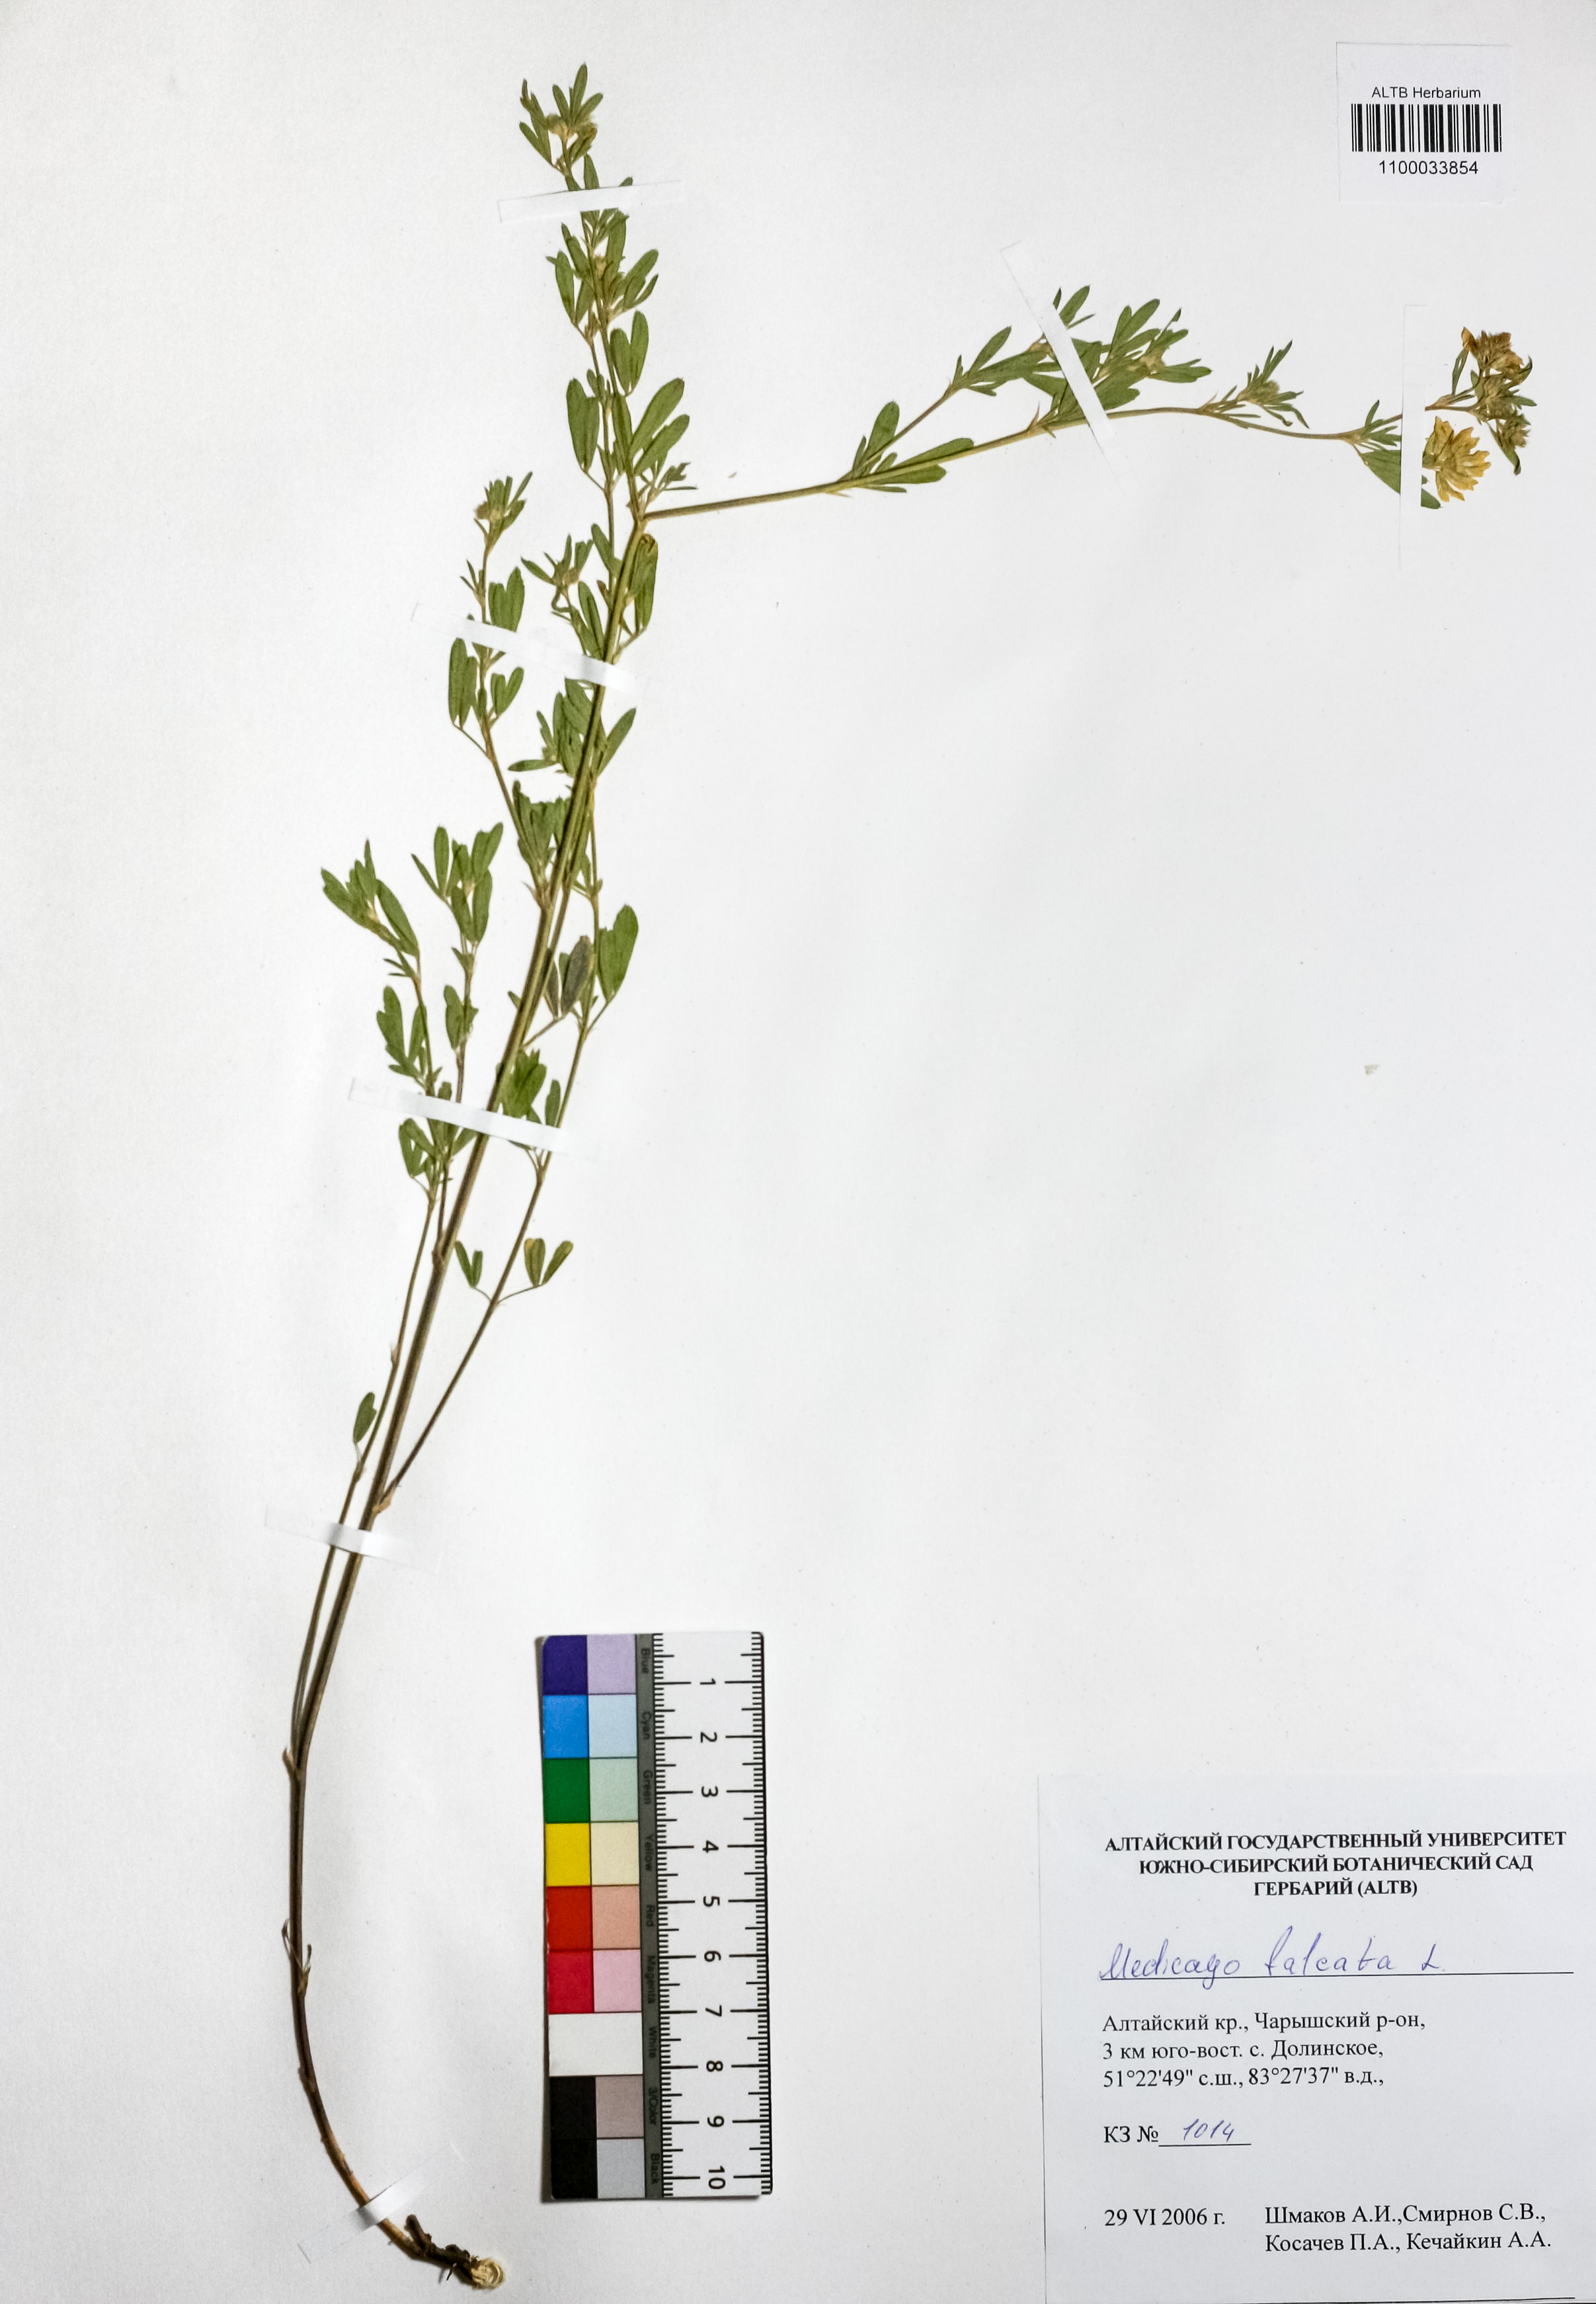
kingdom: Plantae
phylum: Tracheophyta
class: Magnoliopsida
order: Fabales
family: Fabaceae
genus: Medicago
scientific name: Medicago falcata
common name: Sickle medick
